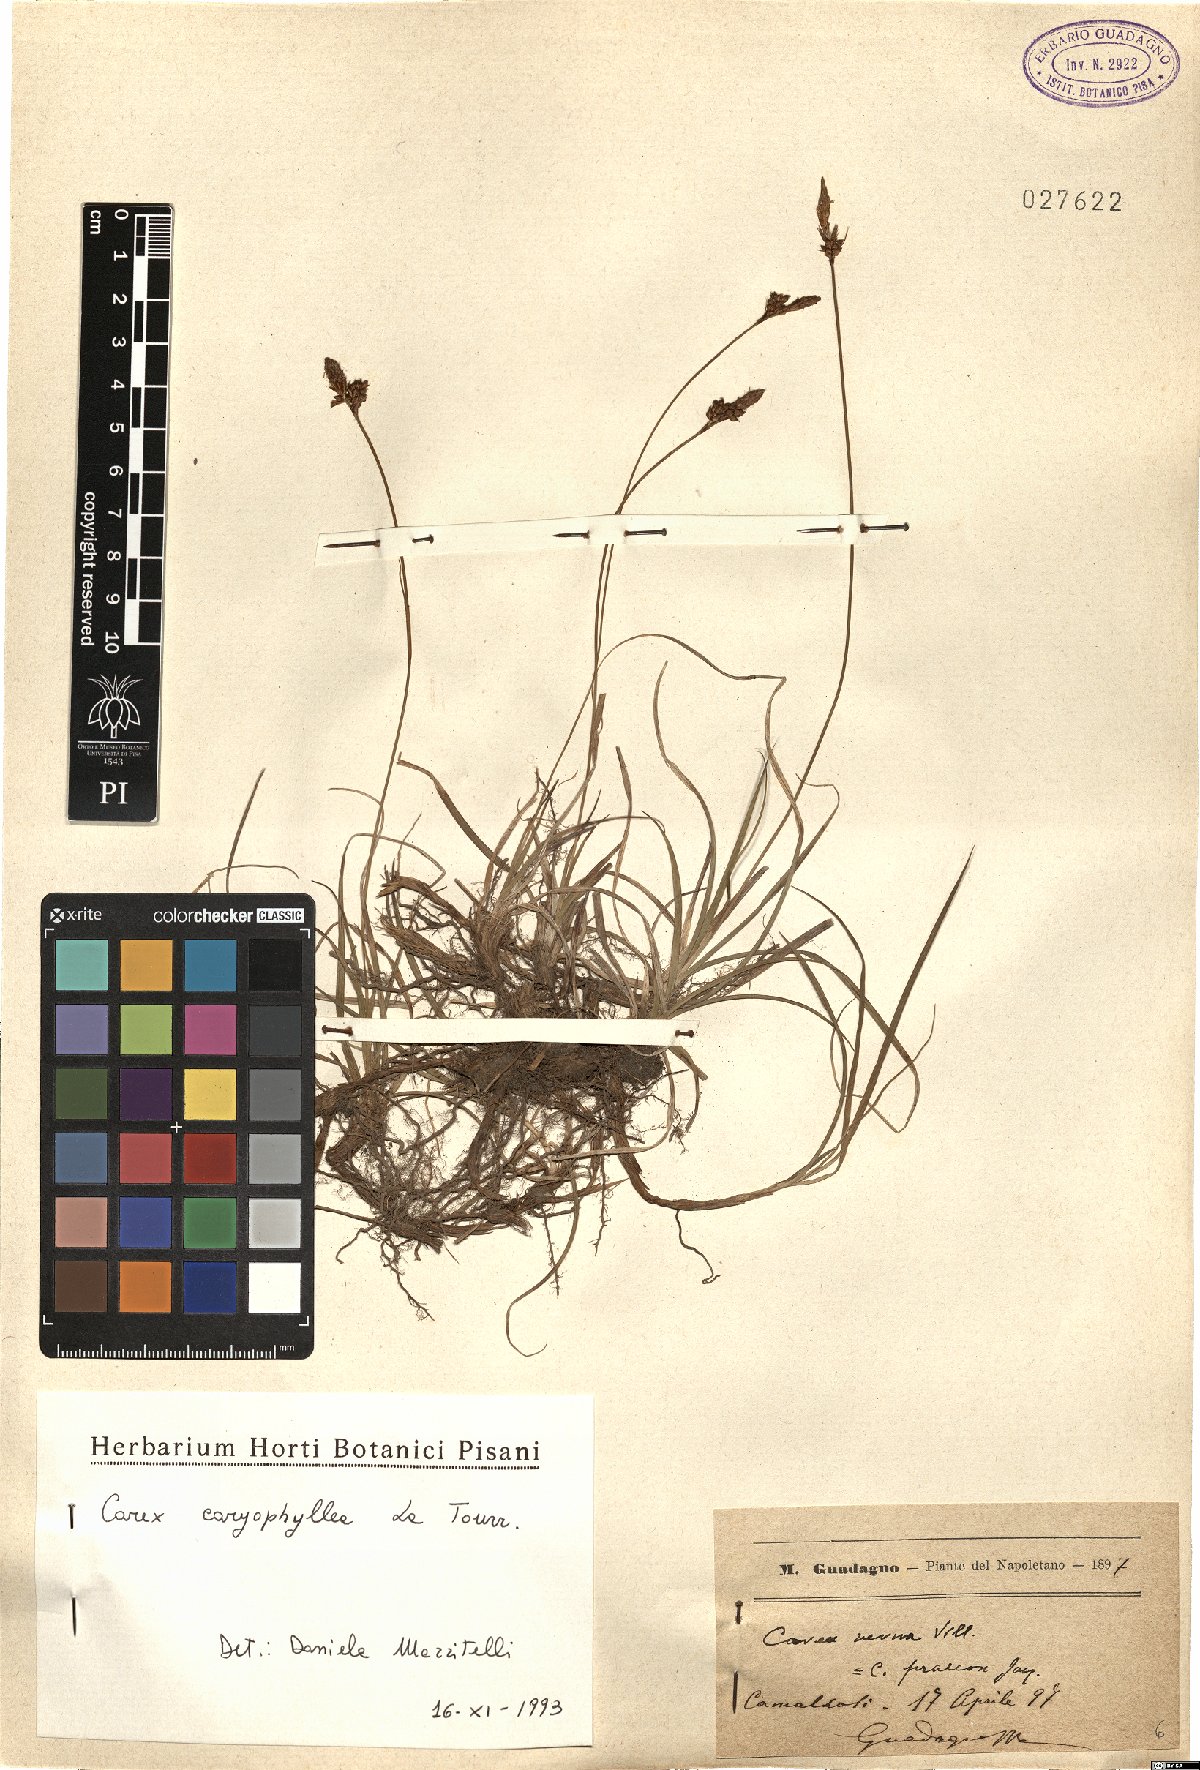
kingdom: Plantae
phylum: Tracheophyta
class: Liliopsida
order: Poales
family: Cyperaceae
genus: Carex
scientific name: Carex caryophyllea
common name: Spring sedge
